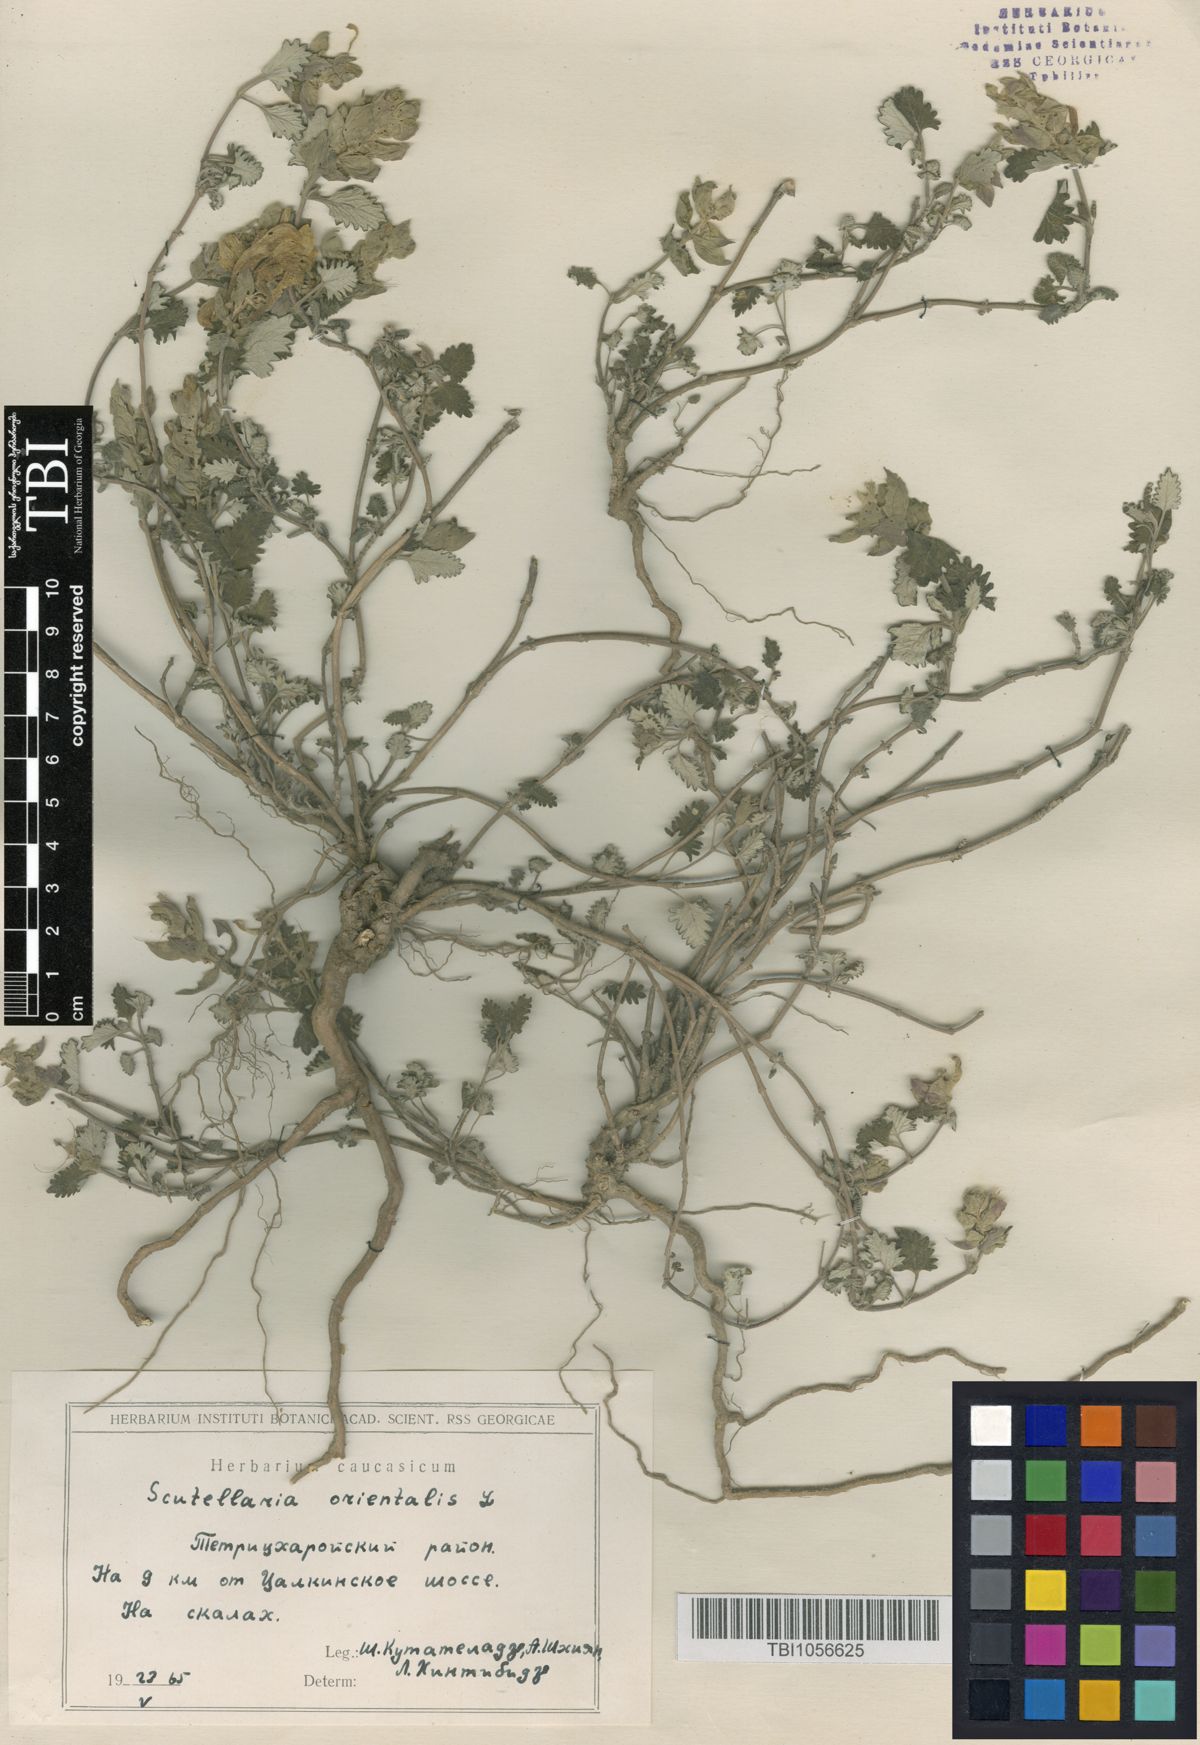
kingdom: Plantae
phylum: Tracheophyta
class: Magnoliopsida
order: Lamiales
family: Lamiaceae
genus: Scutellaria
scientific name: Scutellaria orientalis
